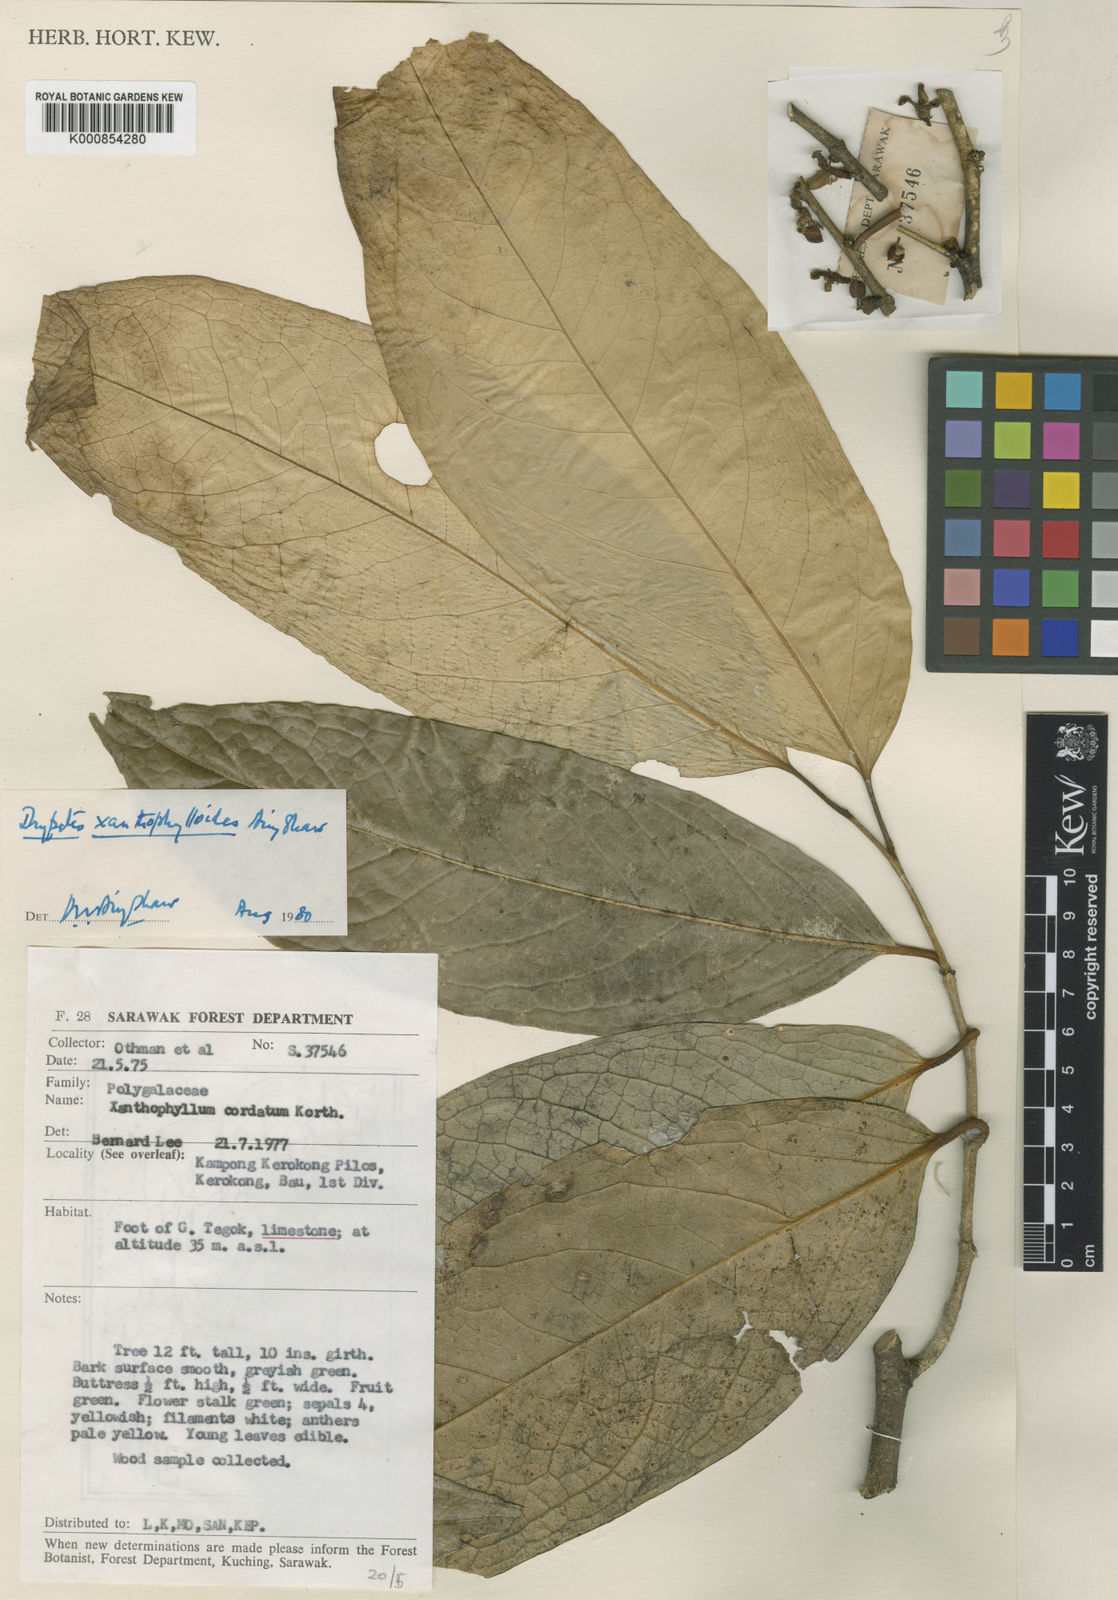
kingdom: Plantae
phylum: Tracheophyta
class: Magnoliopsida
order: Malpighiales
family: Putranjivaceae
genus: Drypetes
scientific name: Drypetes xanthophylloides
